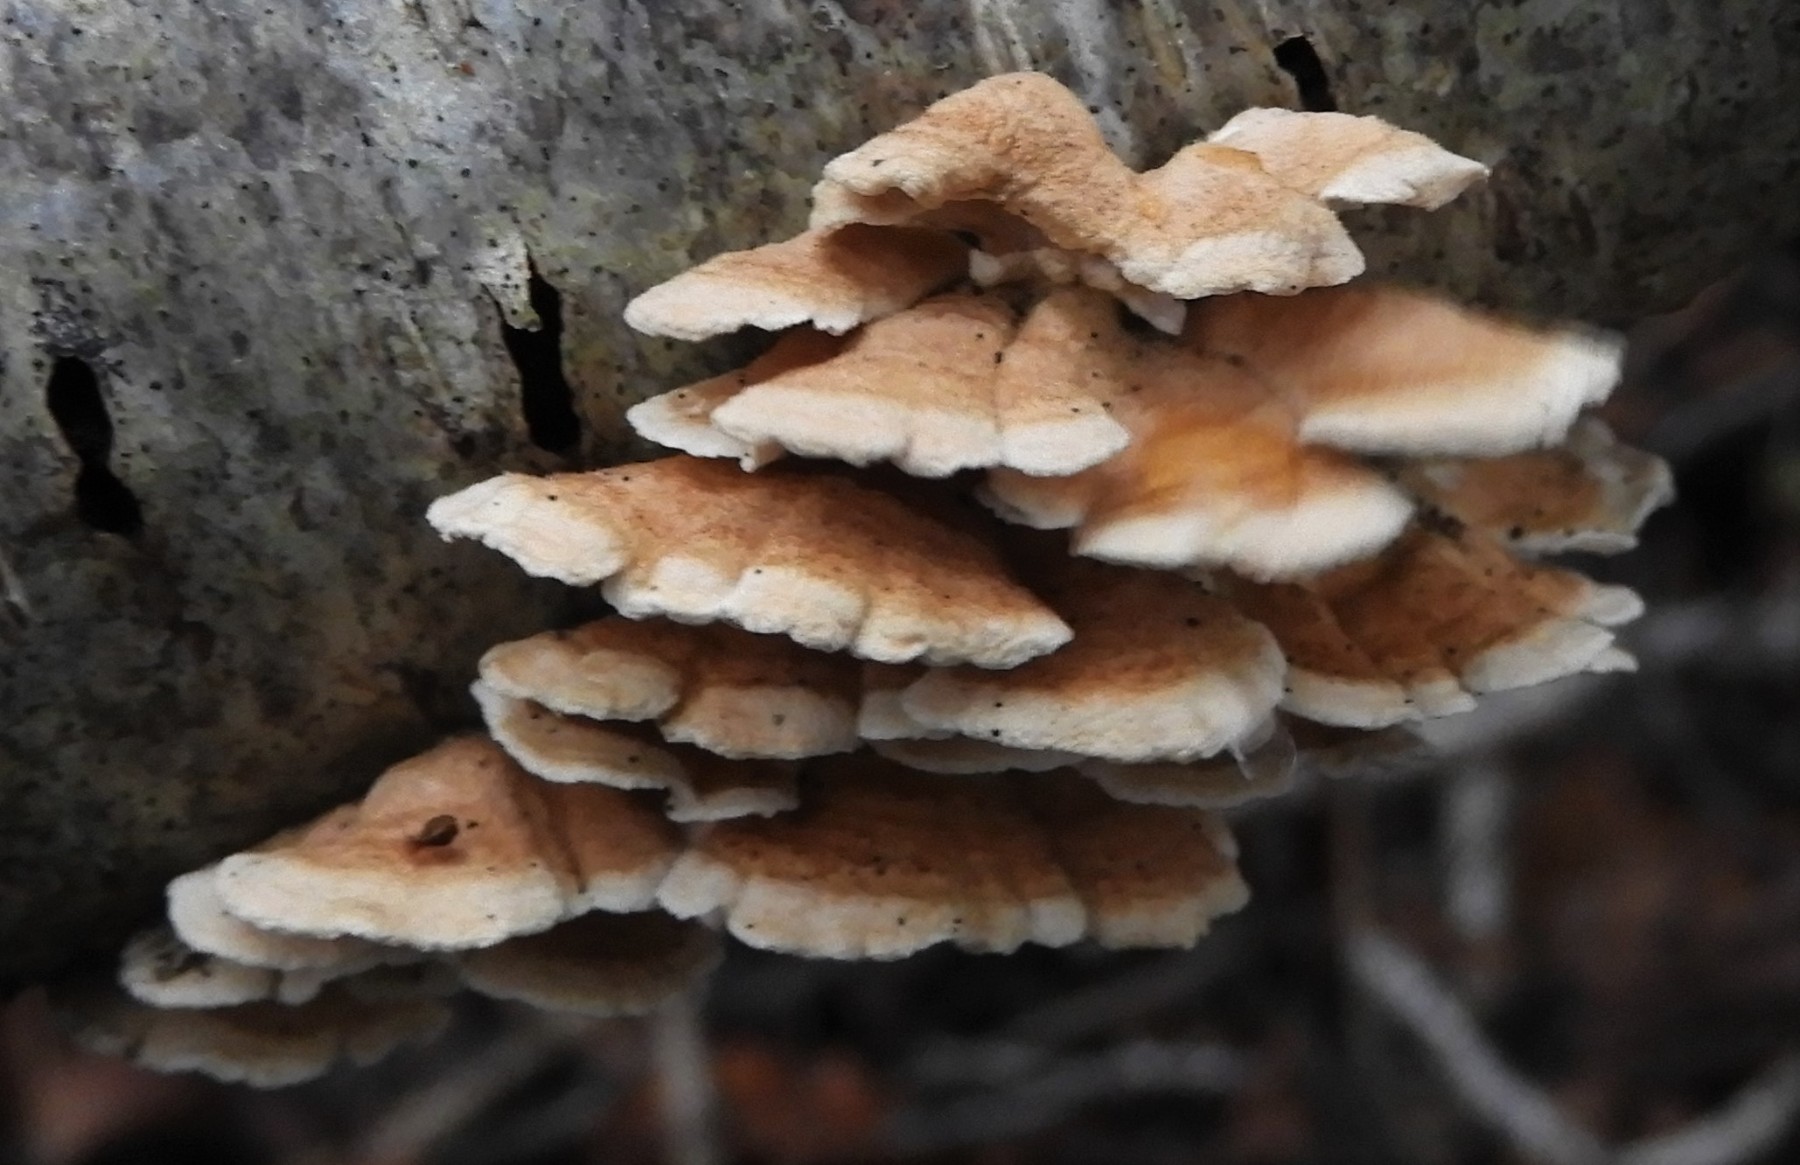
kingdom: Fungi
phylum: Basidiomycota
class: Agaricomycetes
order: Amylocorticiales
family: Amylocorticiaceae
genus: Plicaturopsis
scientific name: Plicaturopsis crispa
